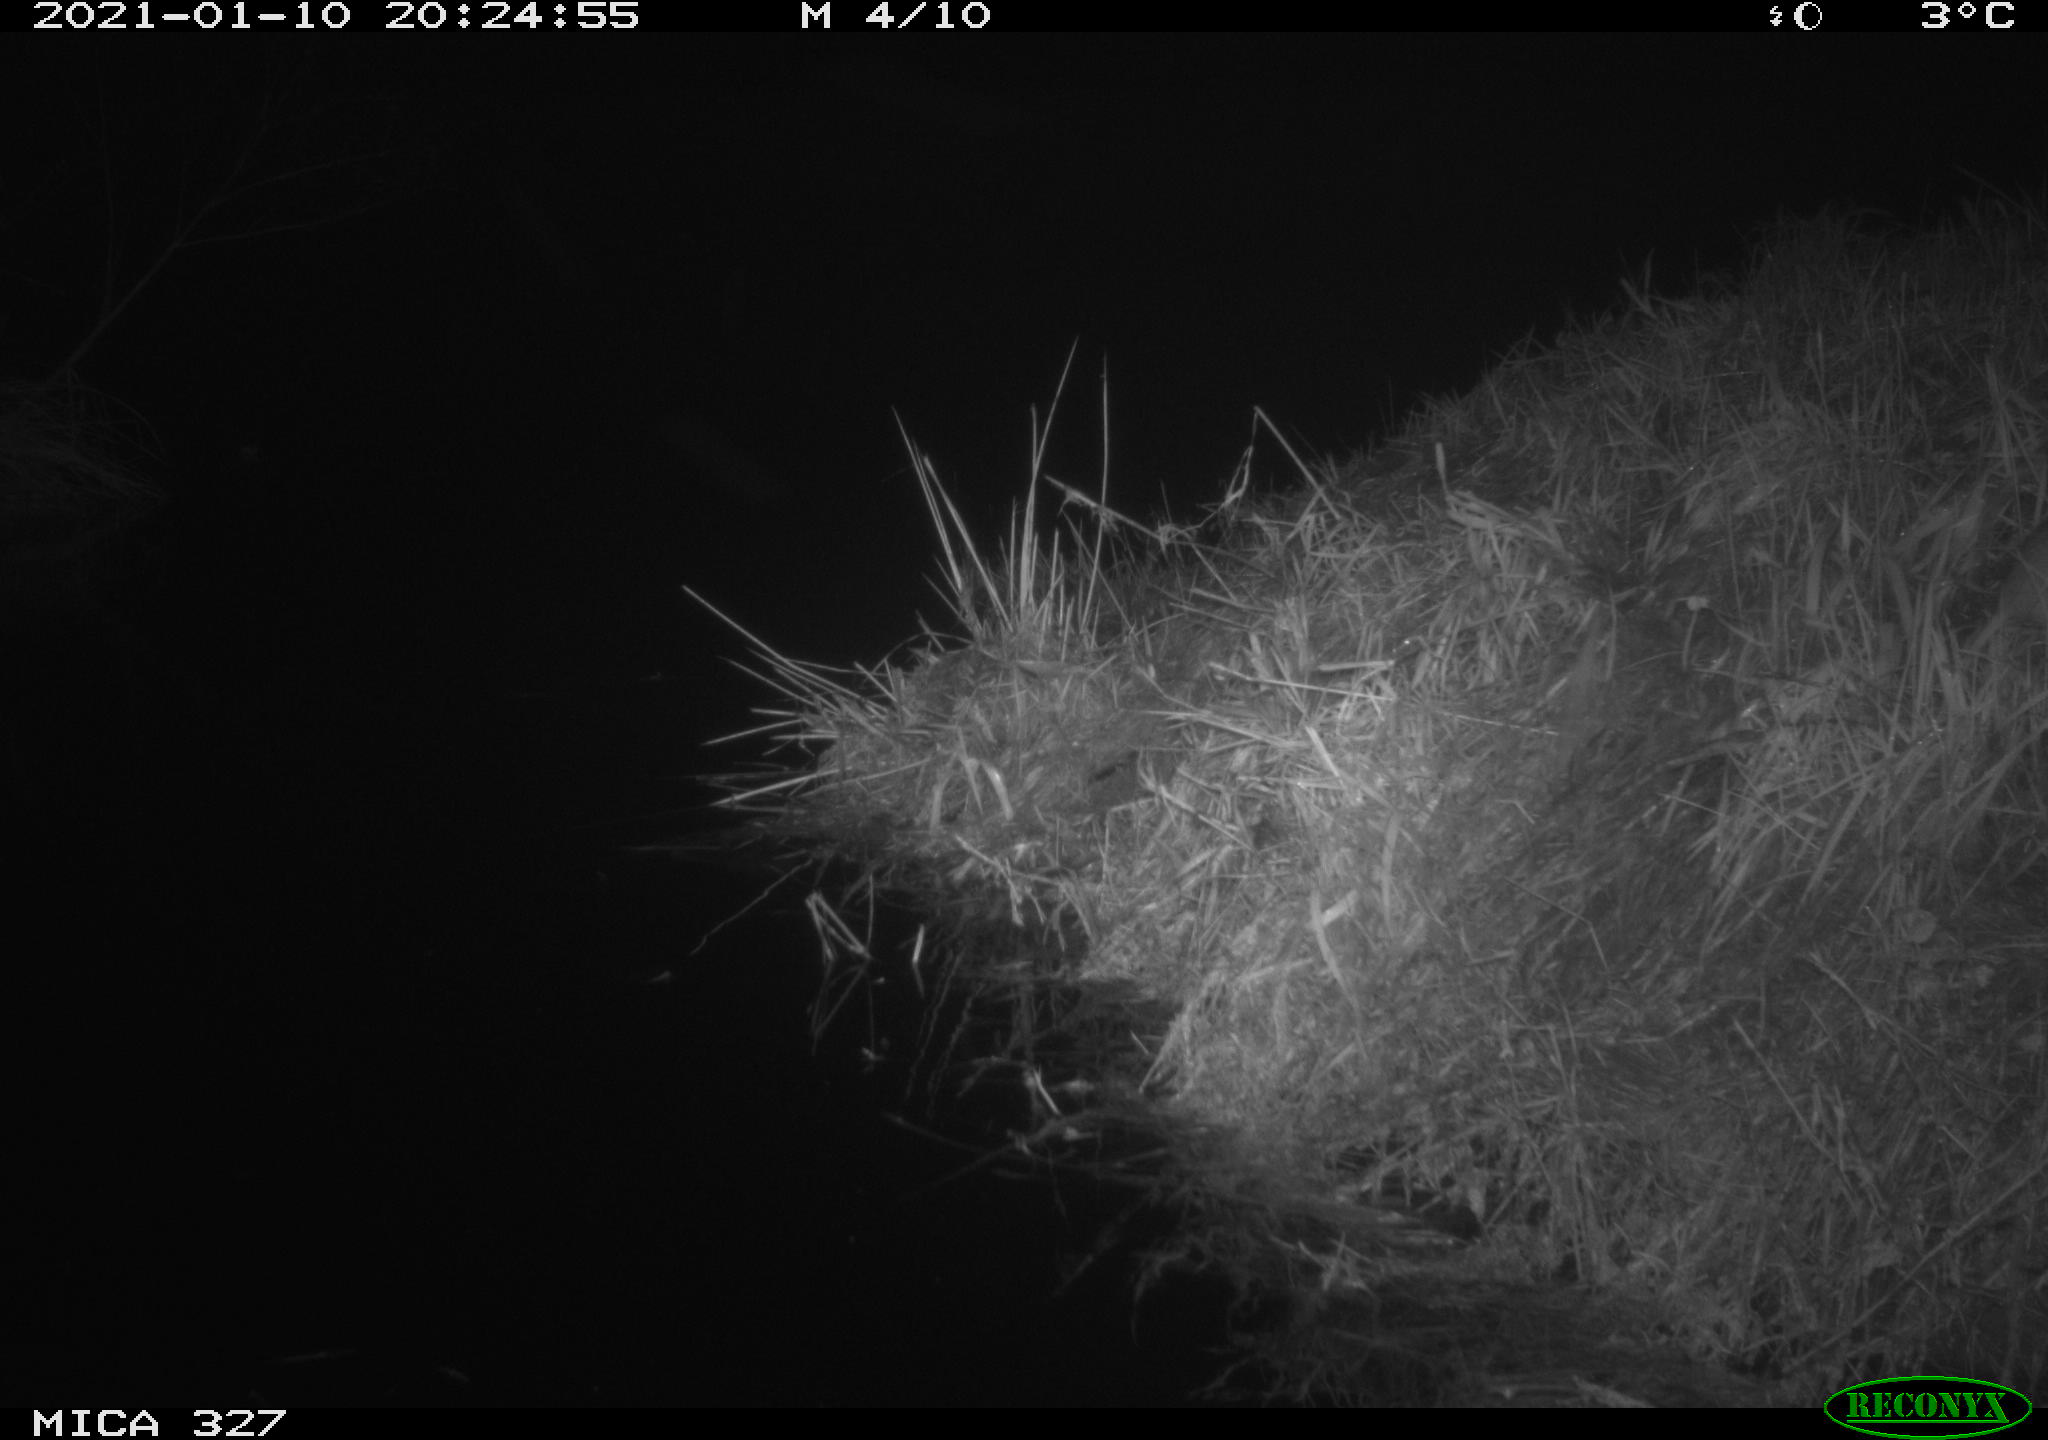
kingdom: Animalia
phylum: Chordata
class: Mammalia
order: Rodentia
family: Muridae
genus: Rattus
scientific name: Rattus norvegicus
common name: Brown rat
